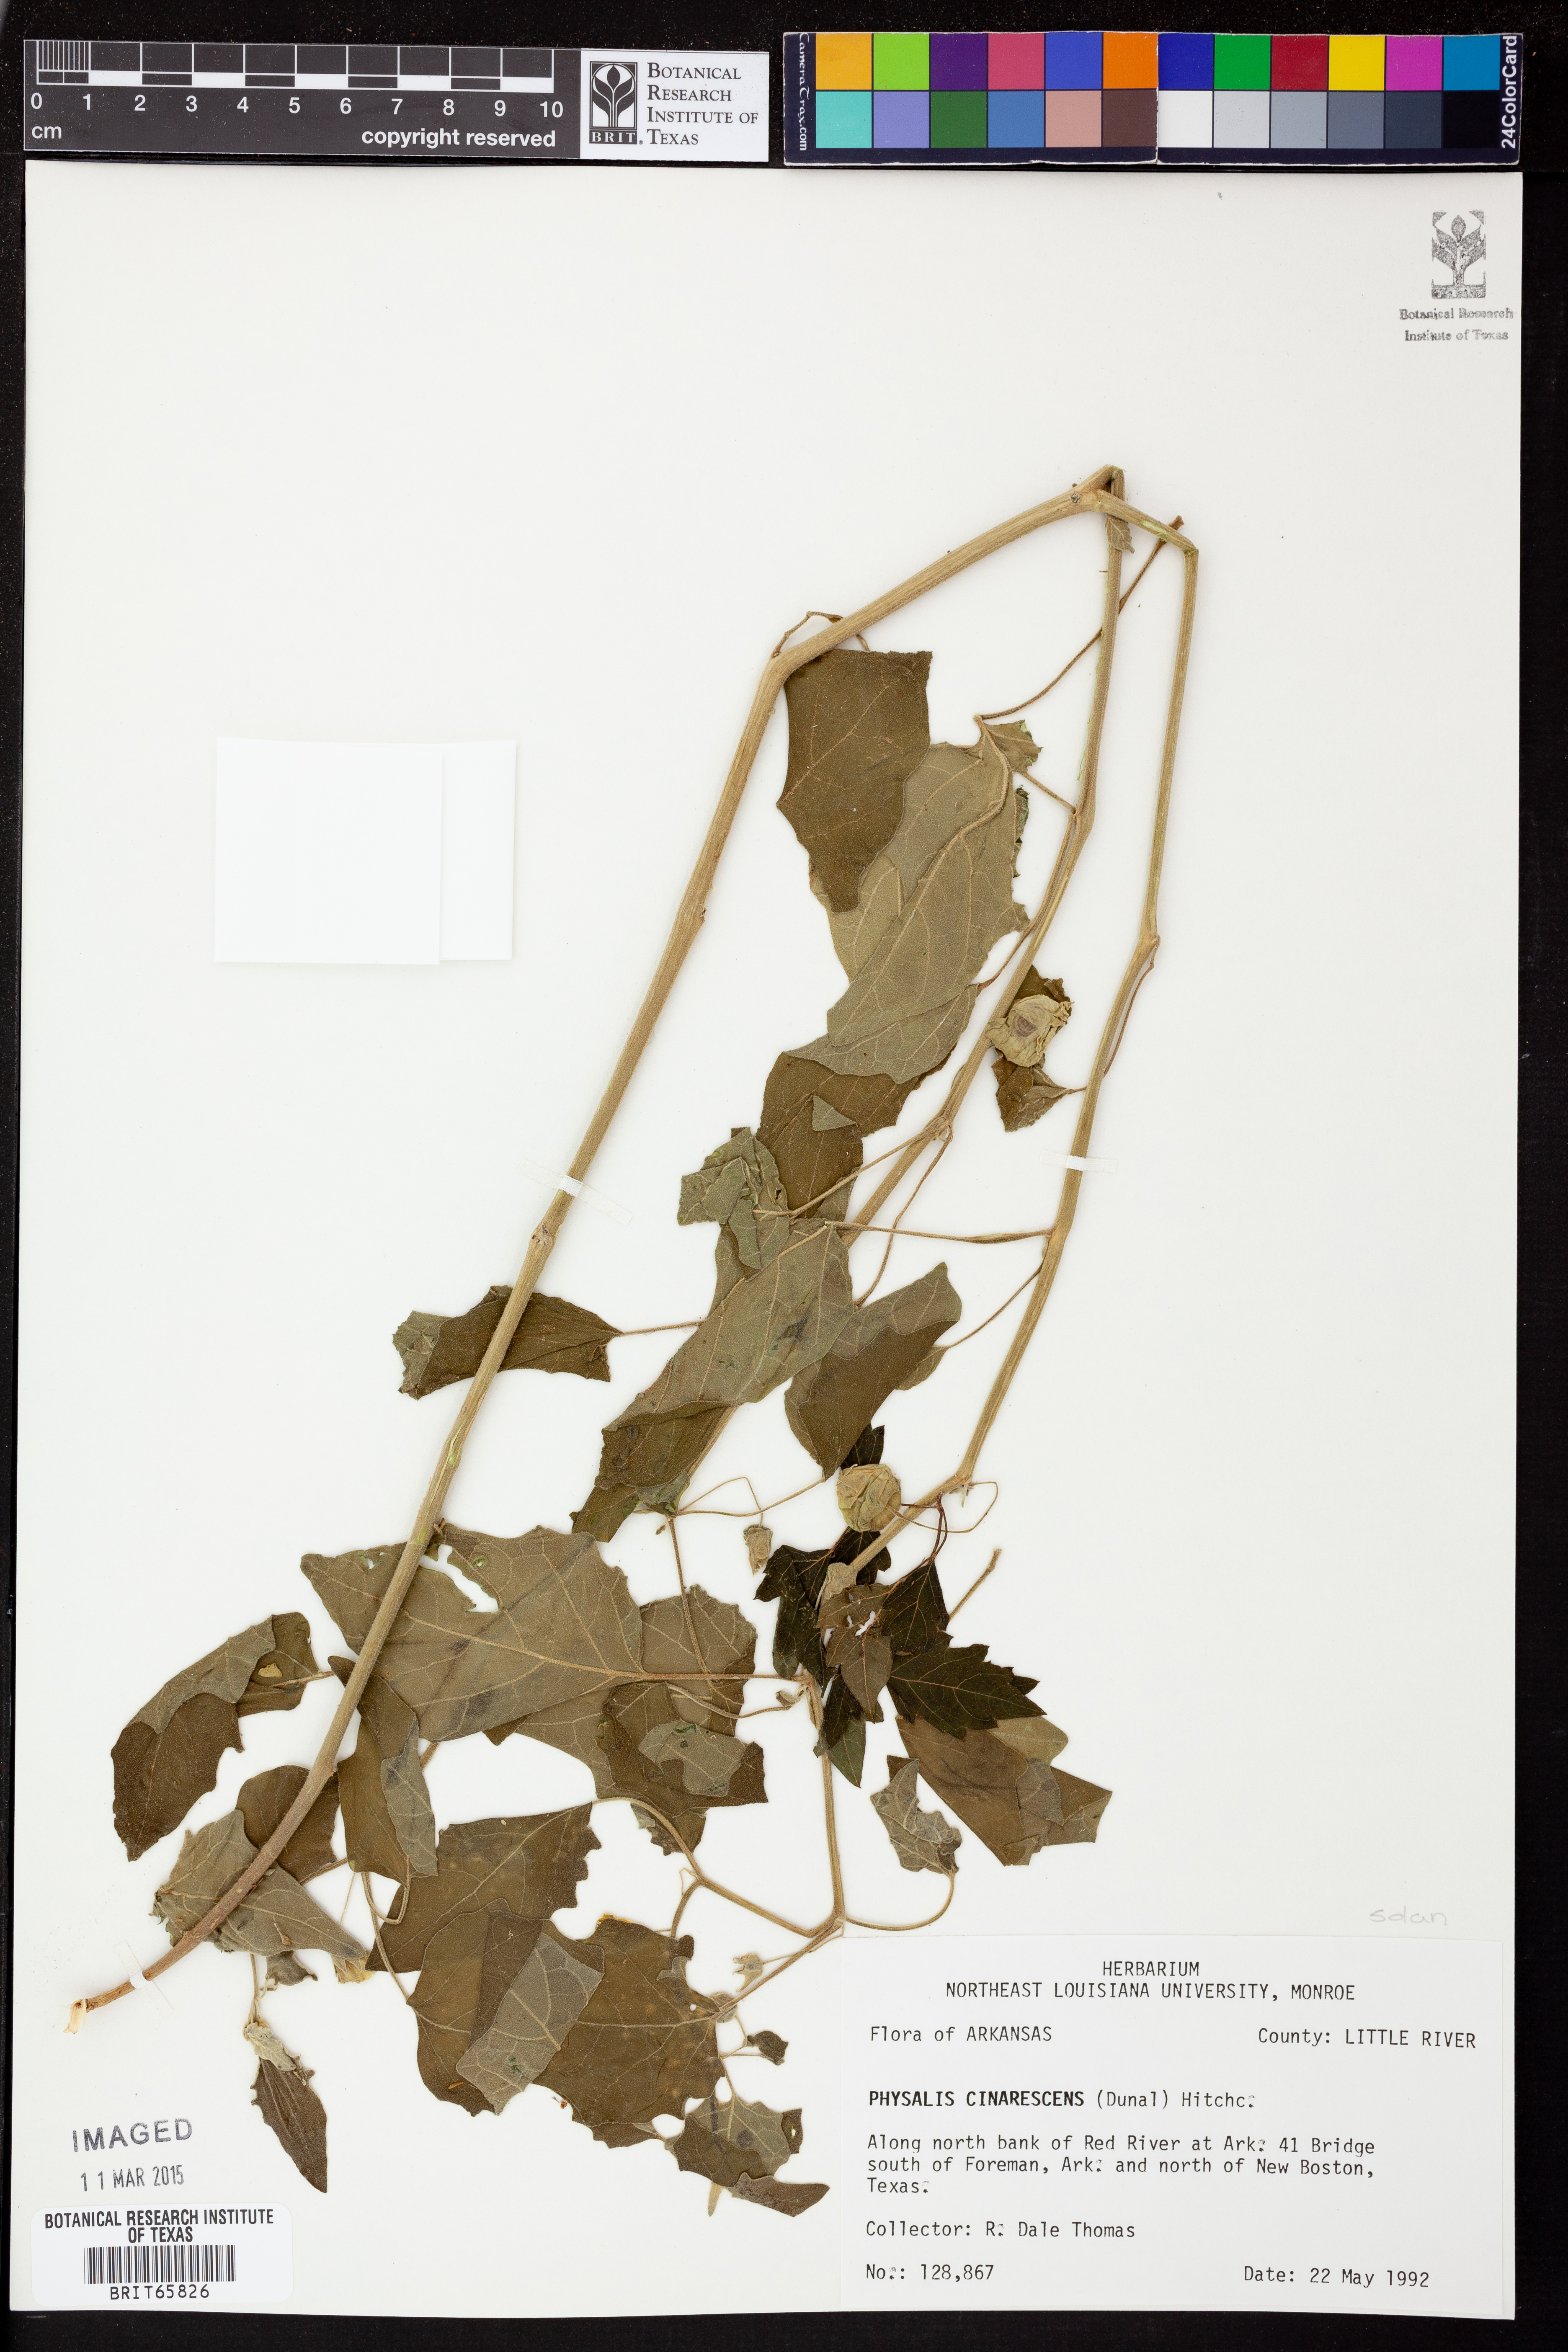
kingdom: Plantae
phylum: Tracheophyta
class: Magnoliopsida
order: Solanales
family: Solanaceae
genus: Physalis
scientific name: Physalis cinerascens
